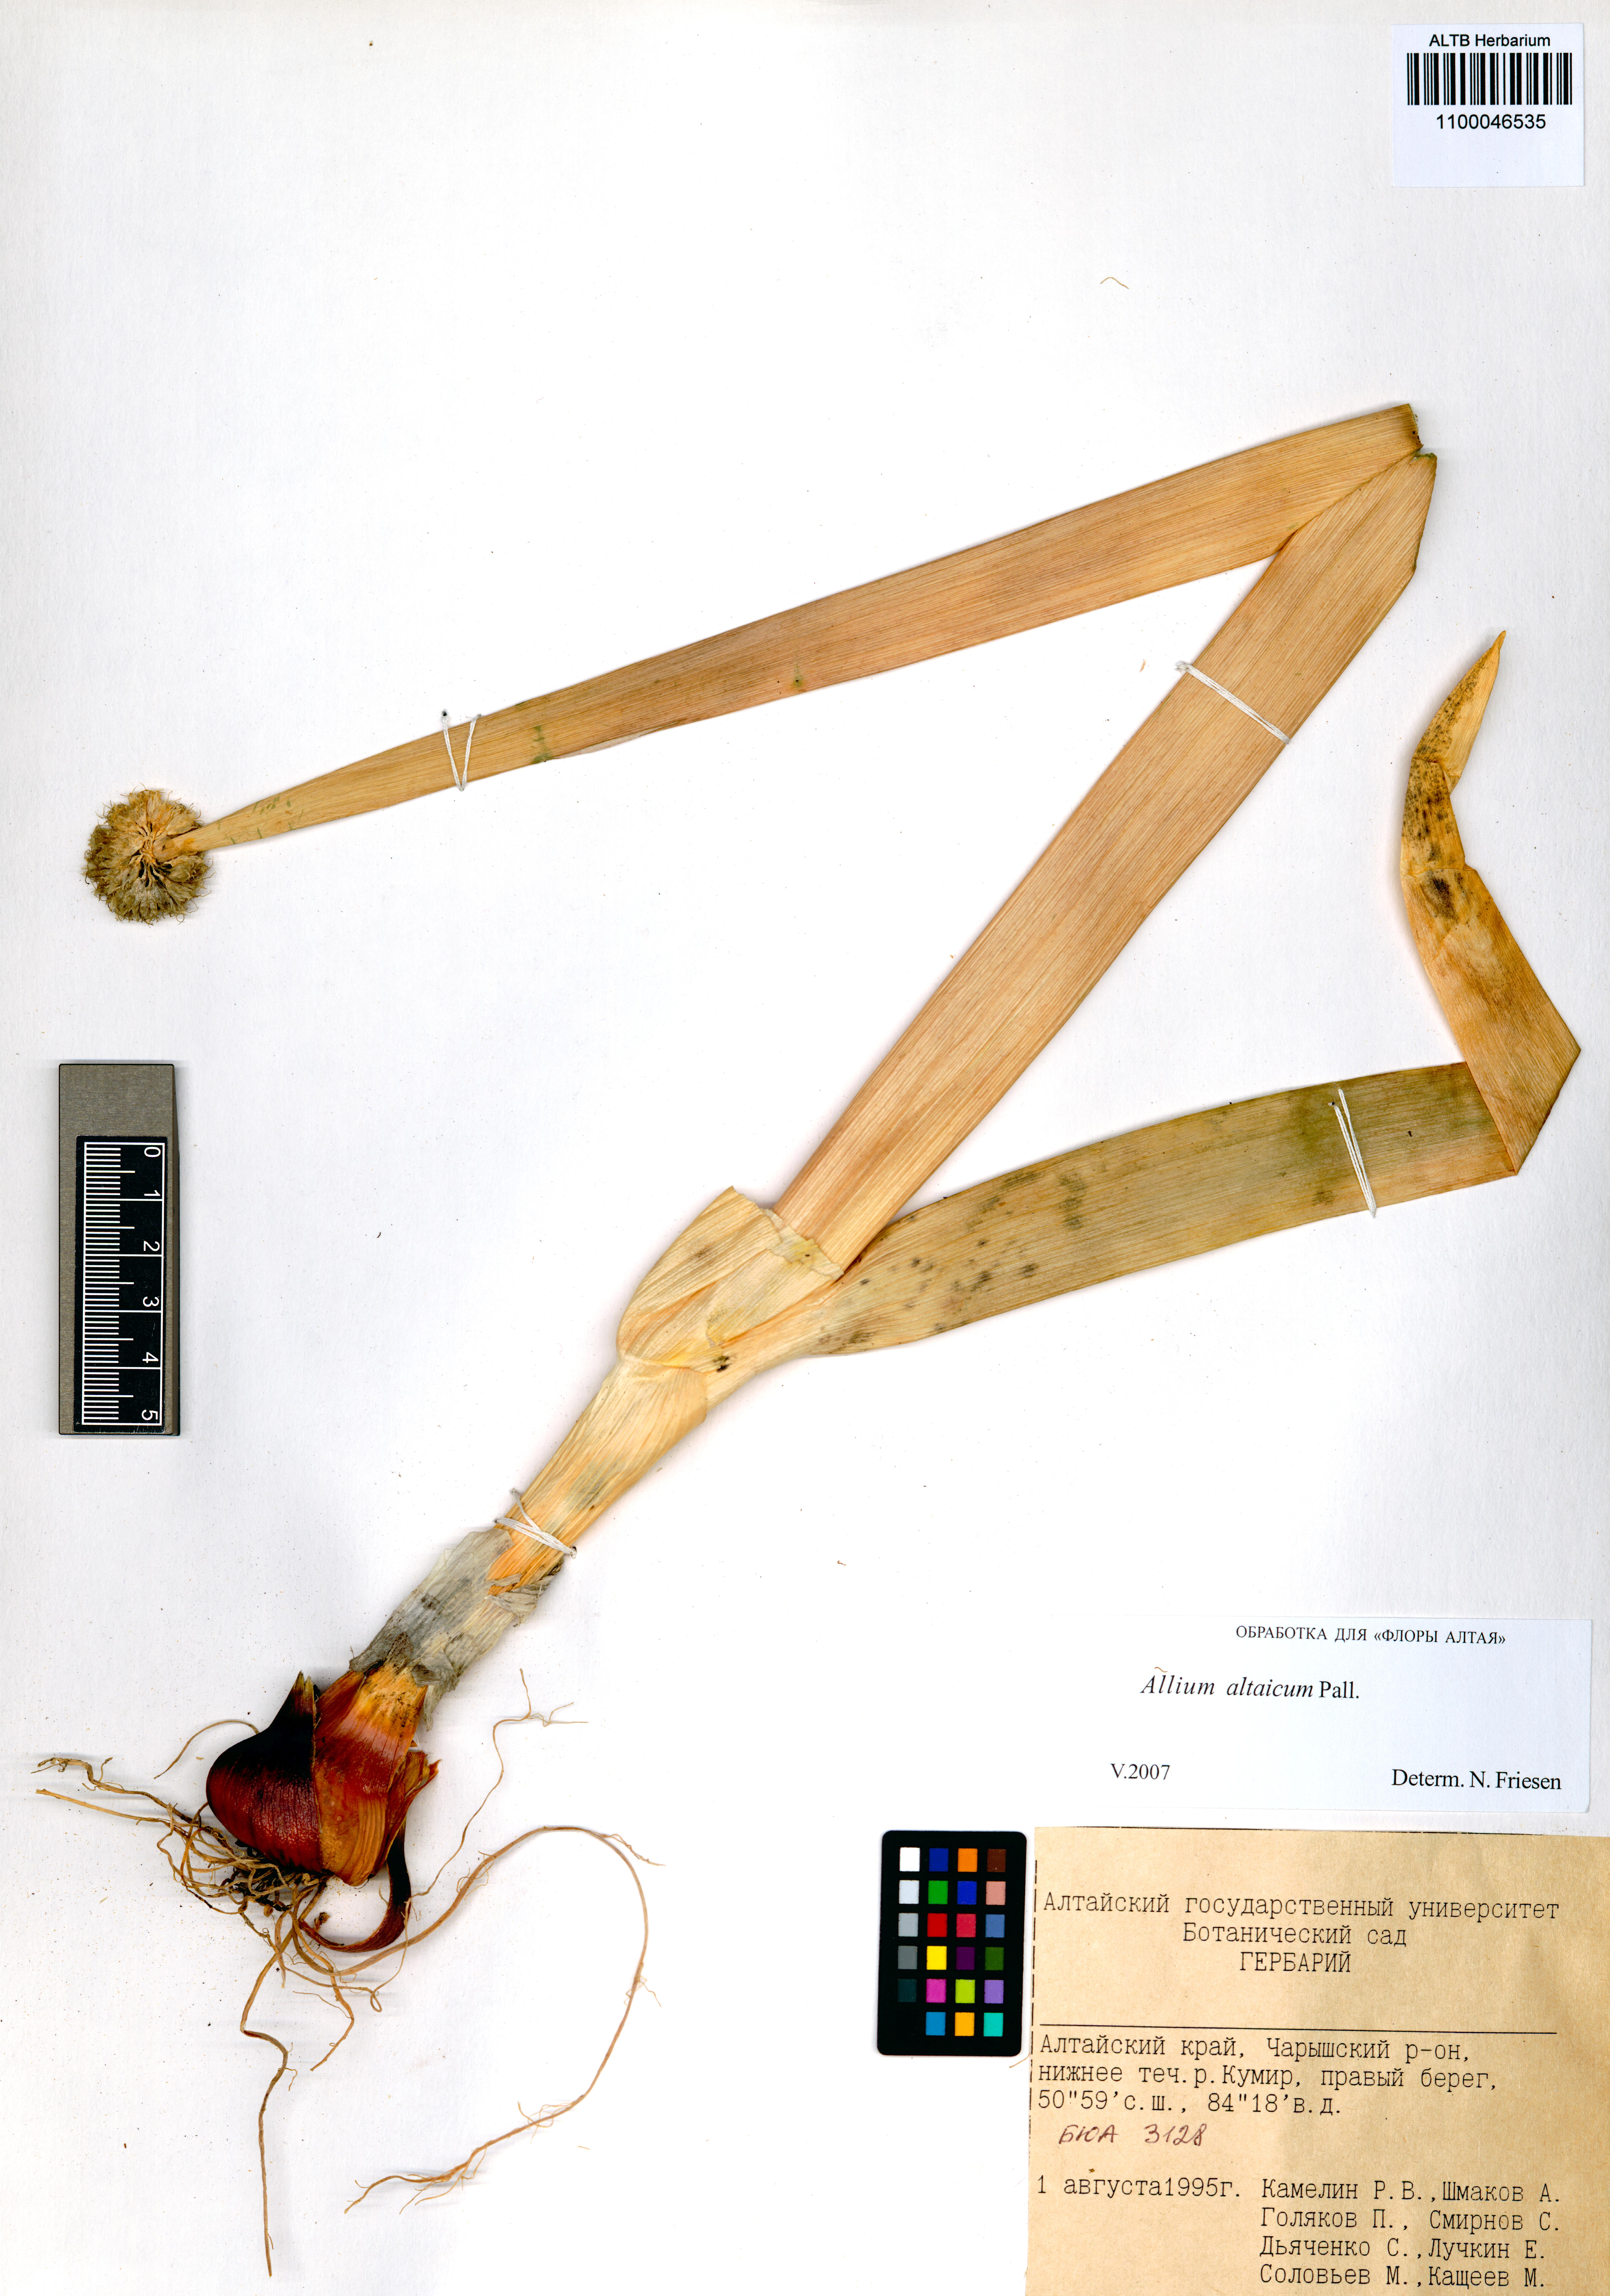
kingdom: Plantae
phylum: Tracheophyta
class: Liliopsida
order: Asparagales
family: Amaryllidaceae
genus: Allium
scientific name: Allium altaicum
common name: Altai onion
